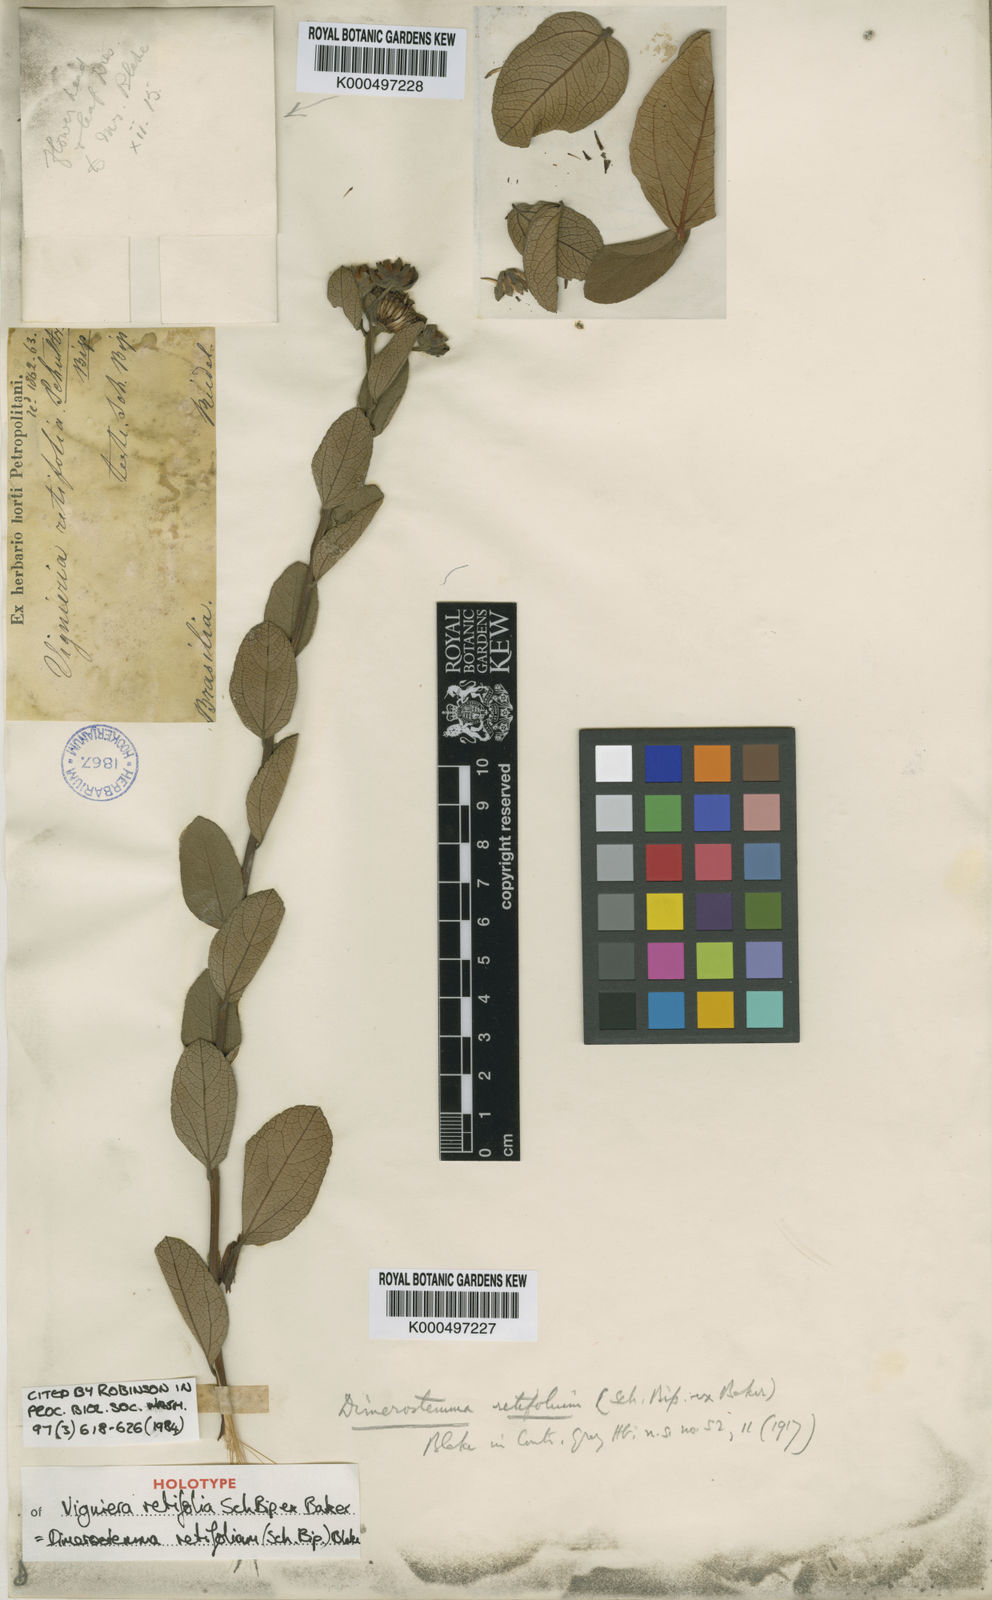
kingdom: Plantae
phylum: Tracheophyta
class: Magnoliopsida
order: Asterales
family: Asteraceae
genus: Dimerostemma
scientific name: Dimerostemma retifolium
